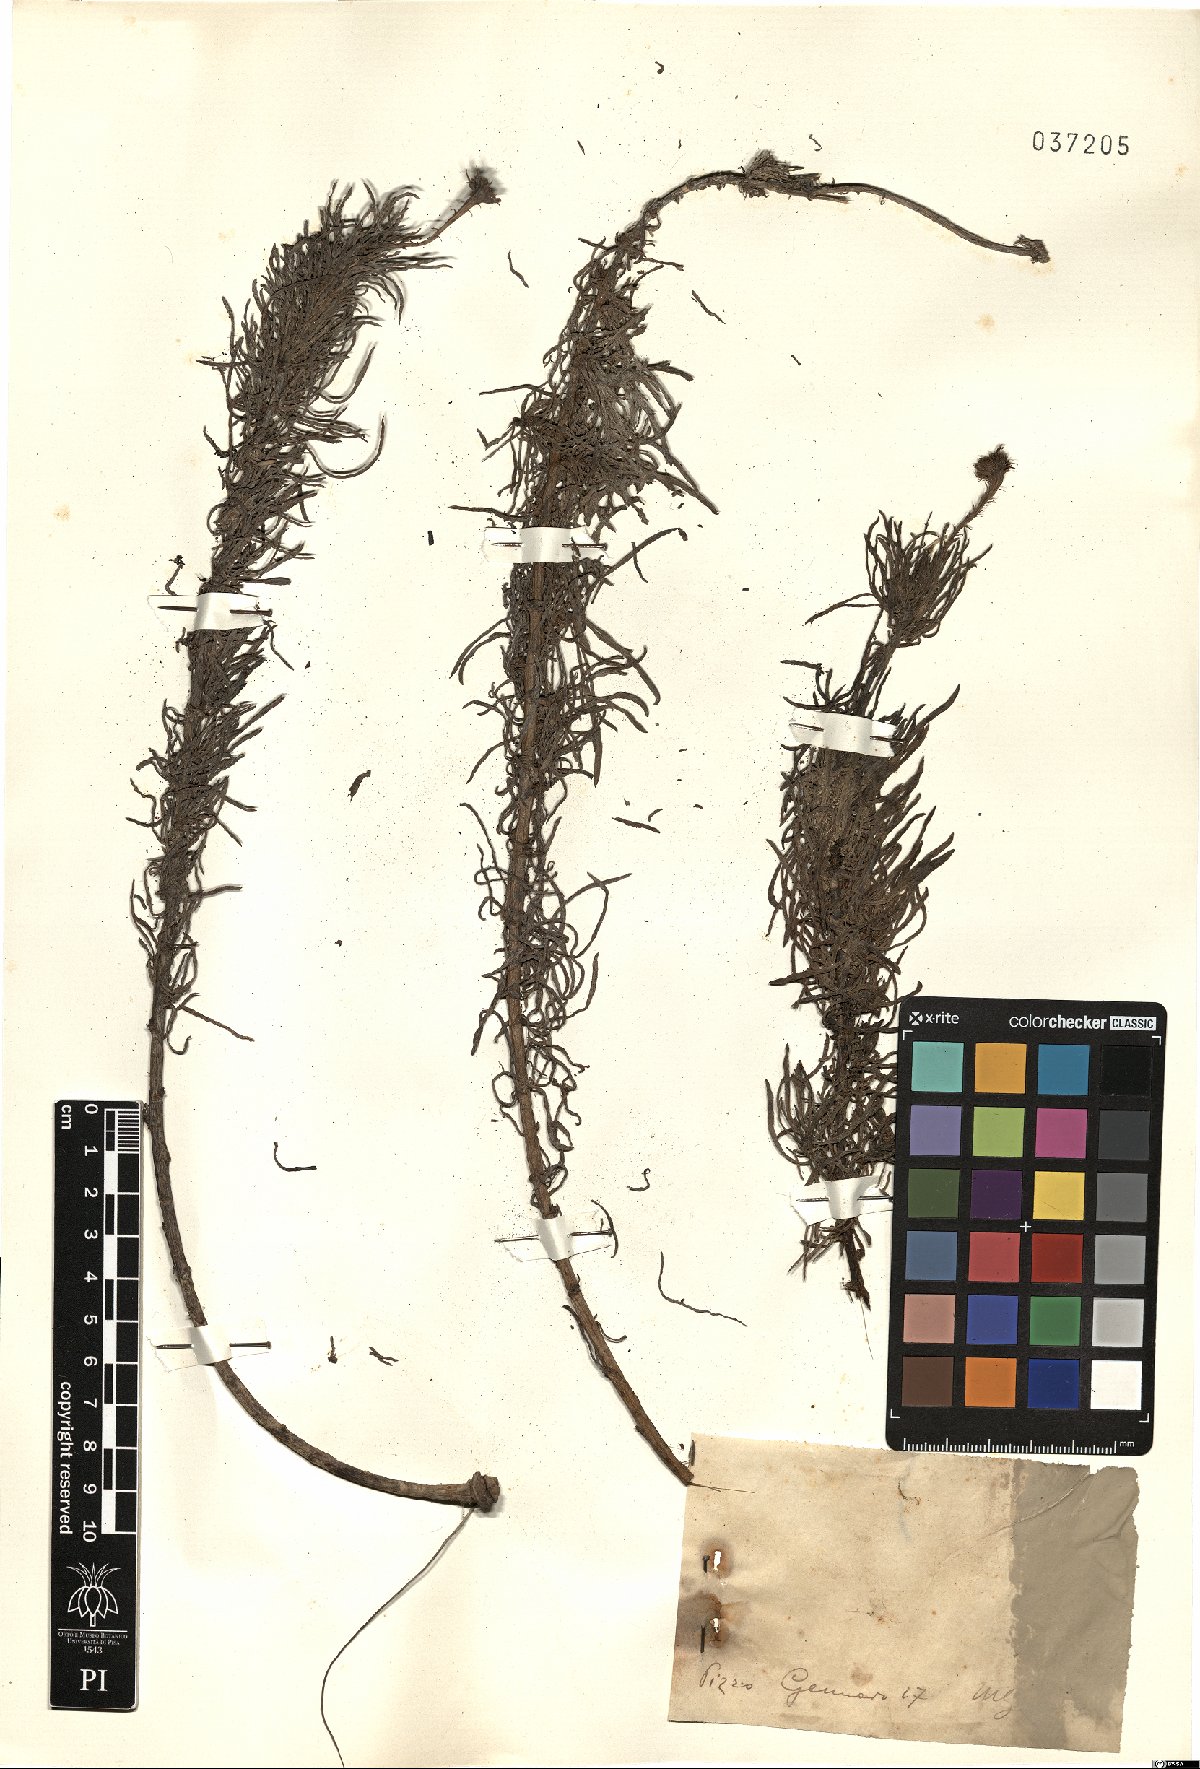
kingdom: Plantae
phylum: Tracheophyta
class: Magnoliopsida
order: Asterales
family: Asteraceae
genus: Inula
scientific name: Inula
